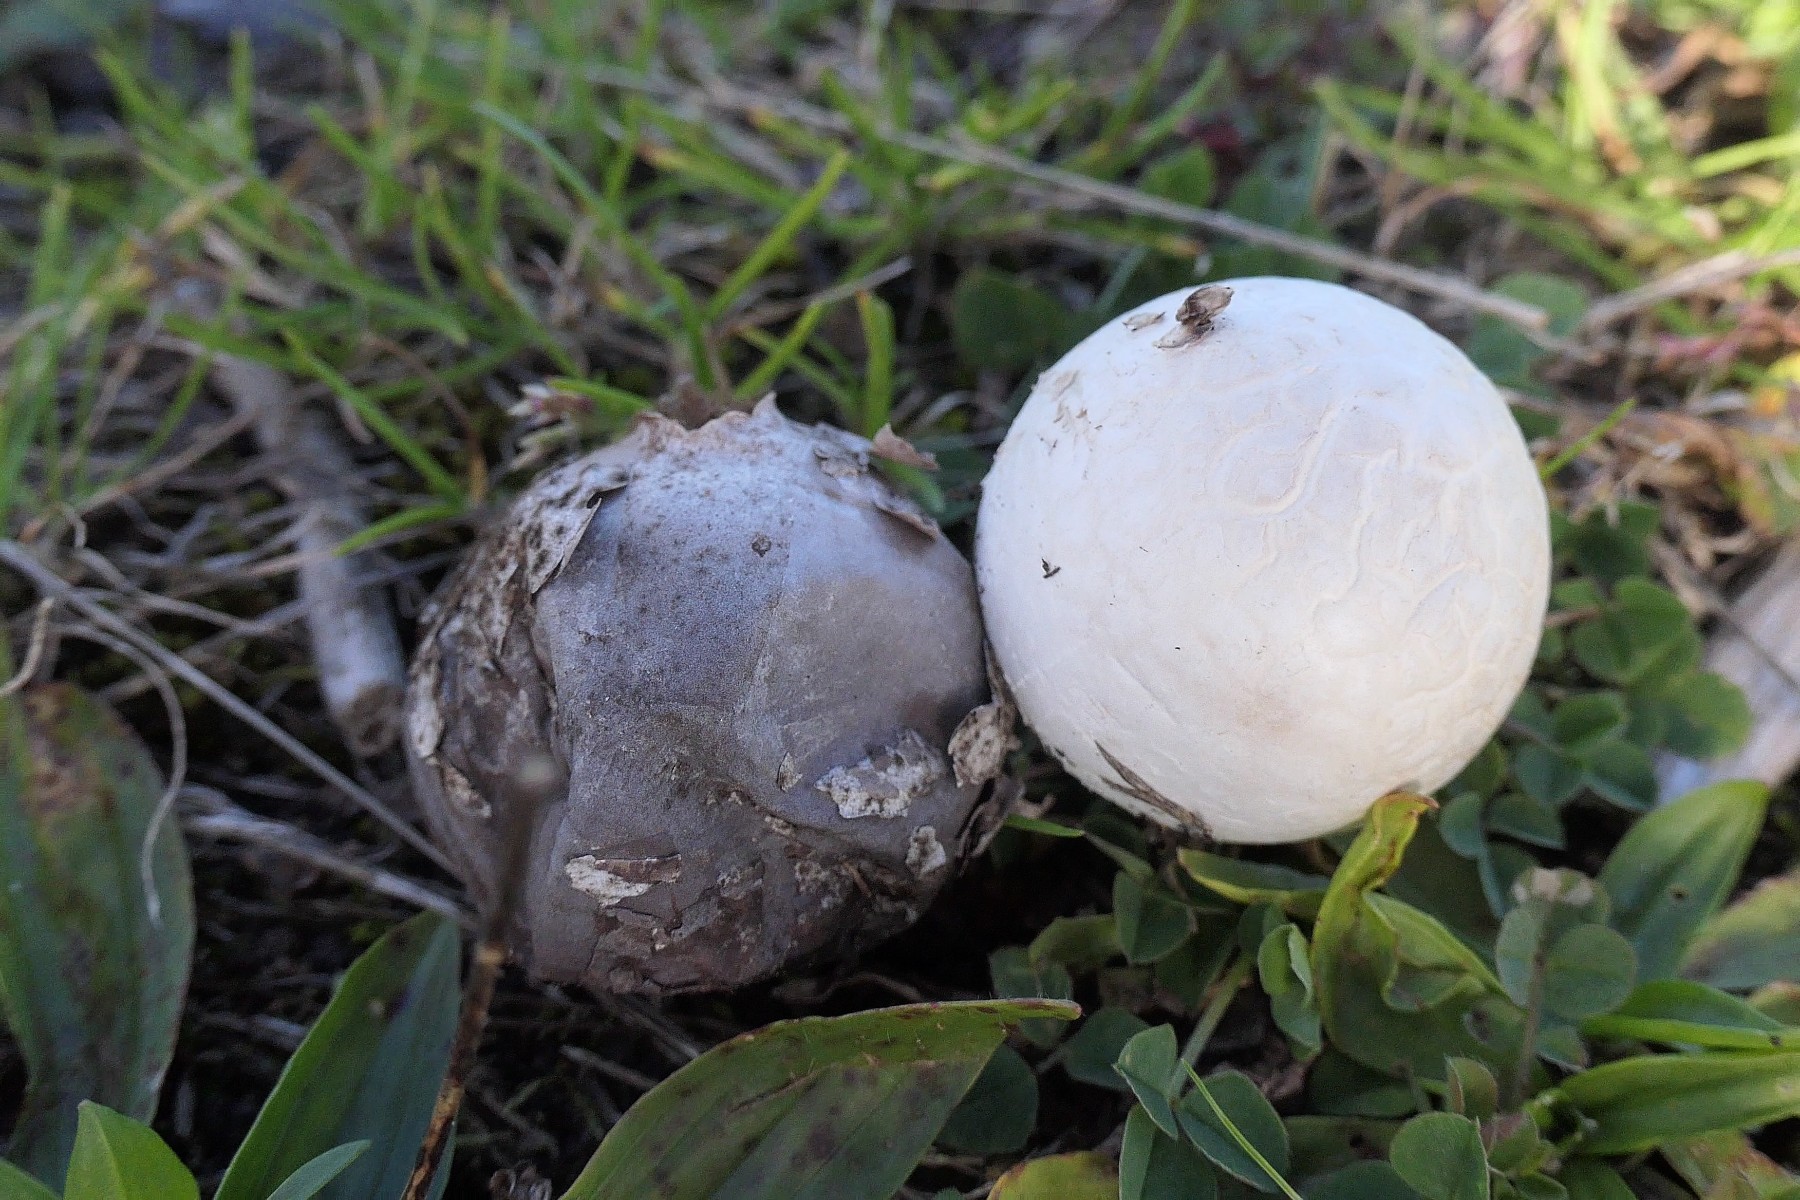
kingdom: Fungi
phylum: Basidiomycota
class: Agaricomycetes
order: Agaricales
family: Lycoperdaceae
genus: Bovista
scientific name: Bovista plumbea
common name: blygrå bovist
